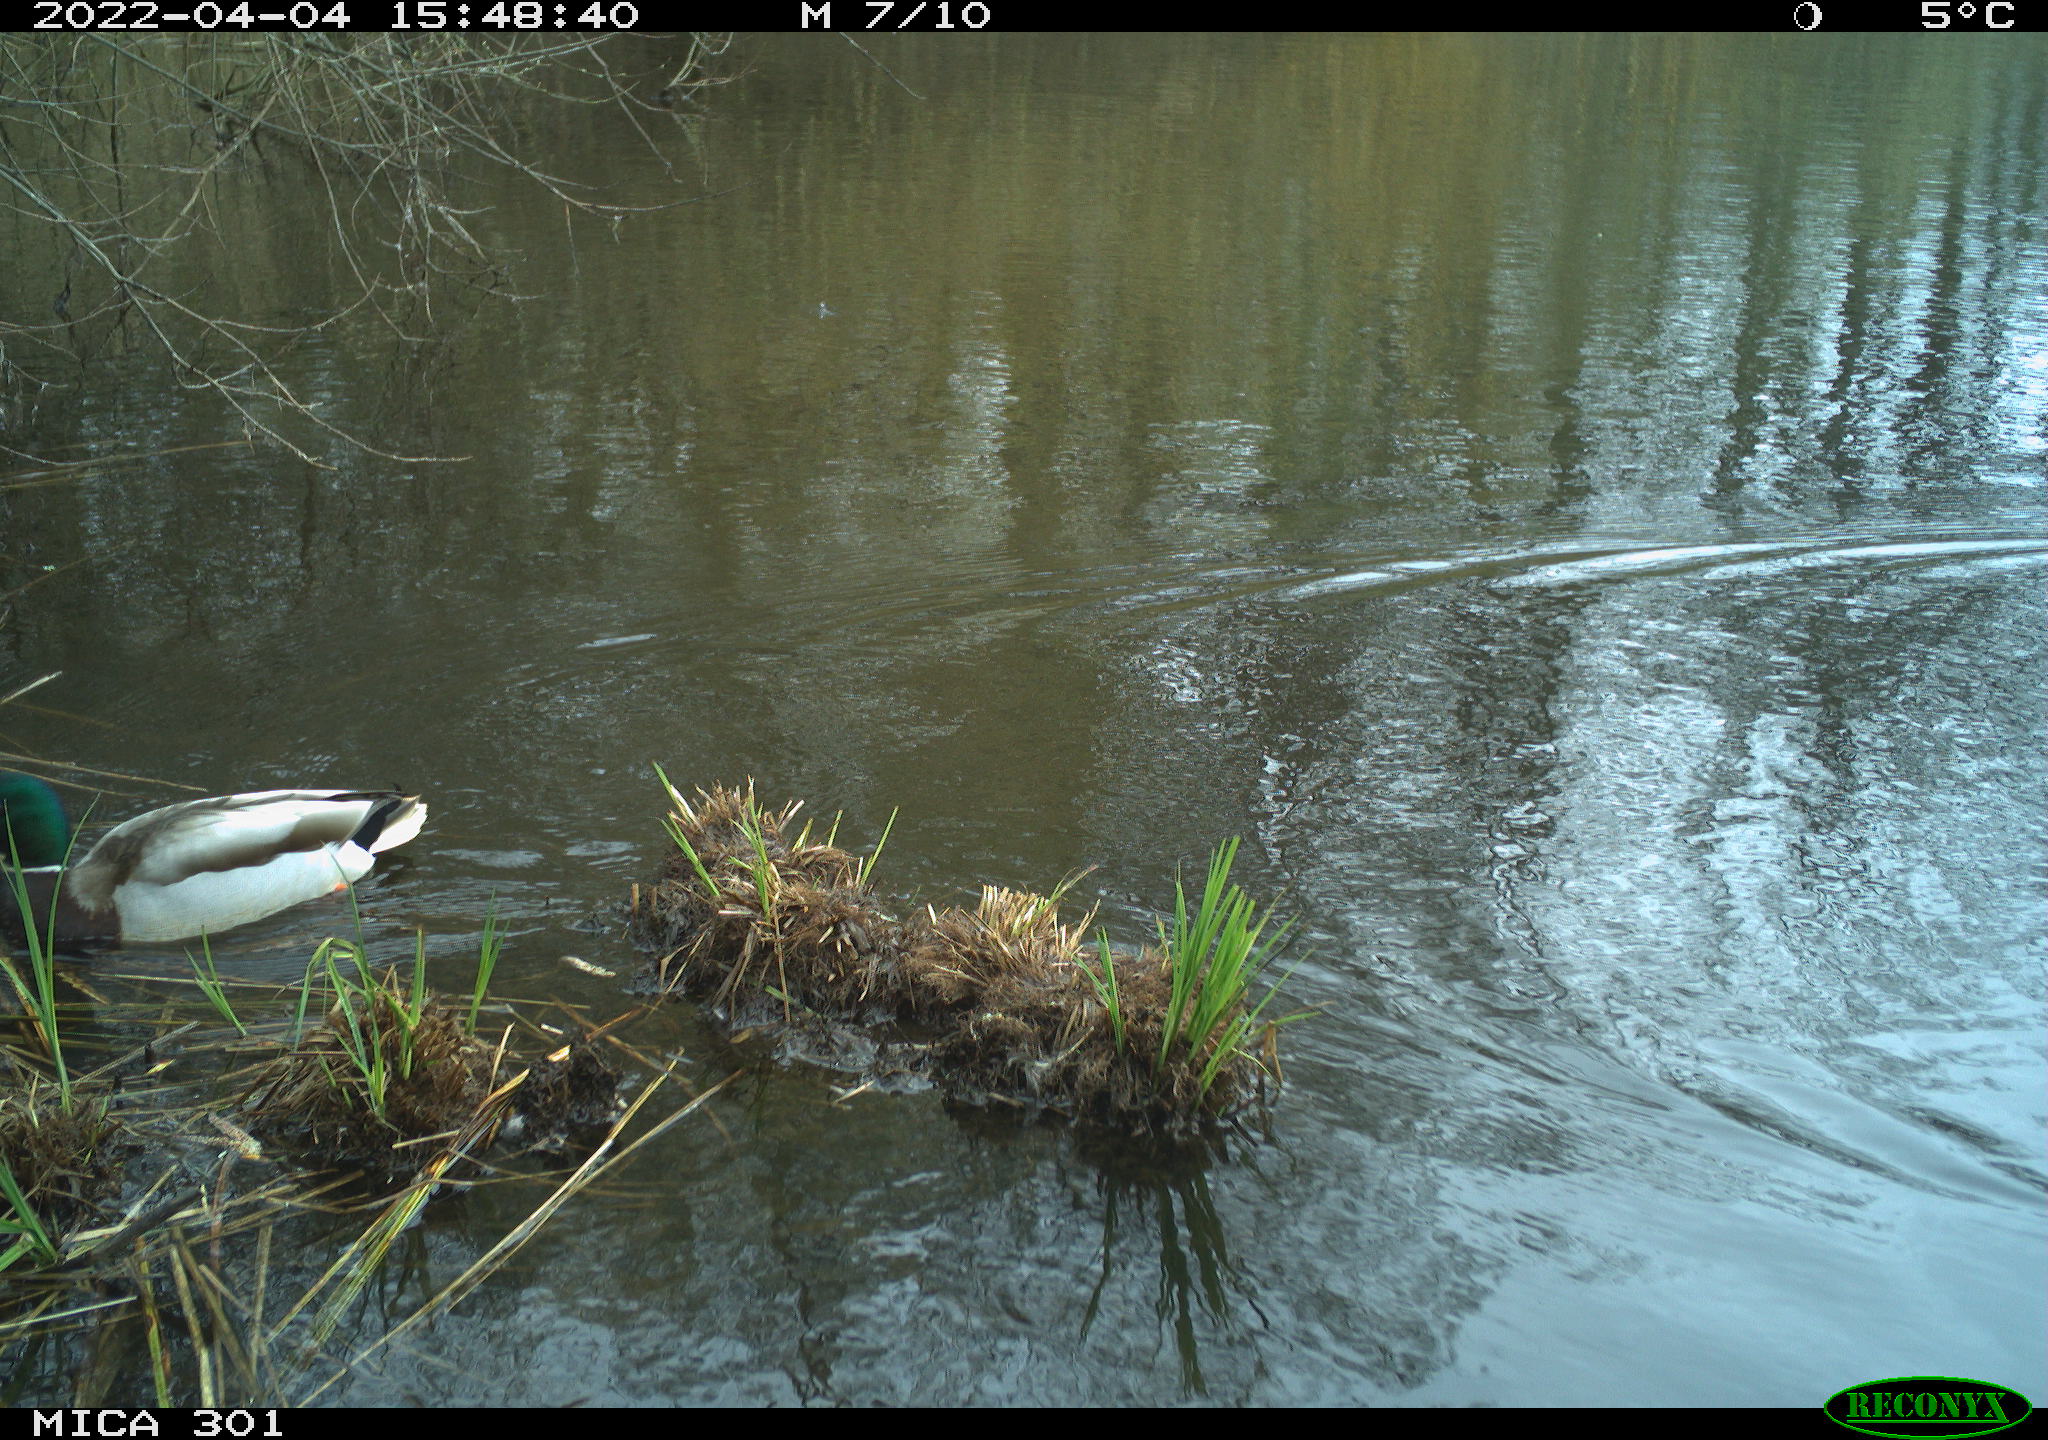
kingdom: Animalia
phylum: Chordata
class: Aves
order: Anseriformes
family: Anatidae
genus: Anas
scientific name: Anas platyrhynchos
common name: Mallard
